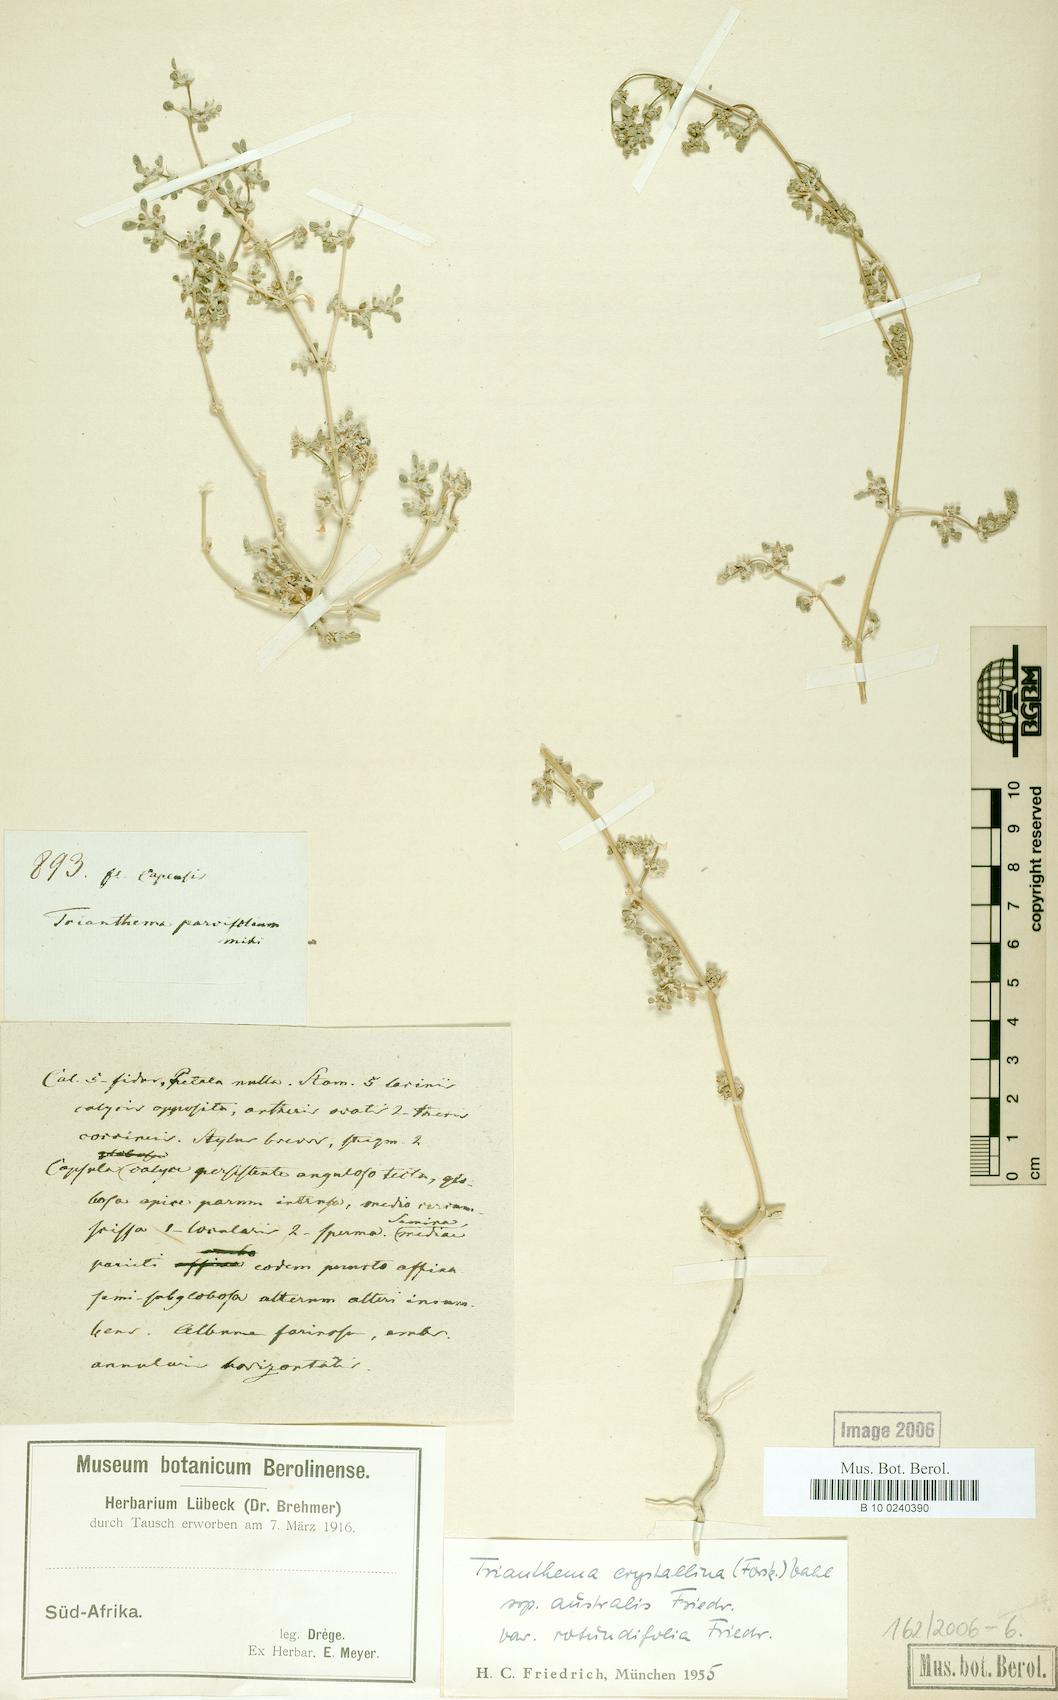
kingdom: Plantae
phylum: Tracheophyta
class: Magnoliopsida
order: Caryophyllales
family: Aizoaceae
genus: Trianthema
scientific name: Trianthema parvifolium
